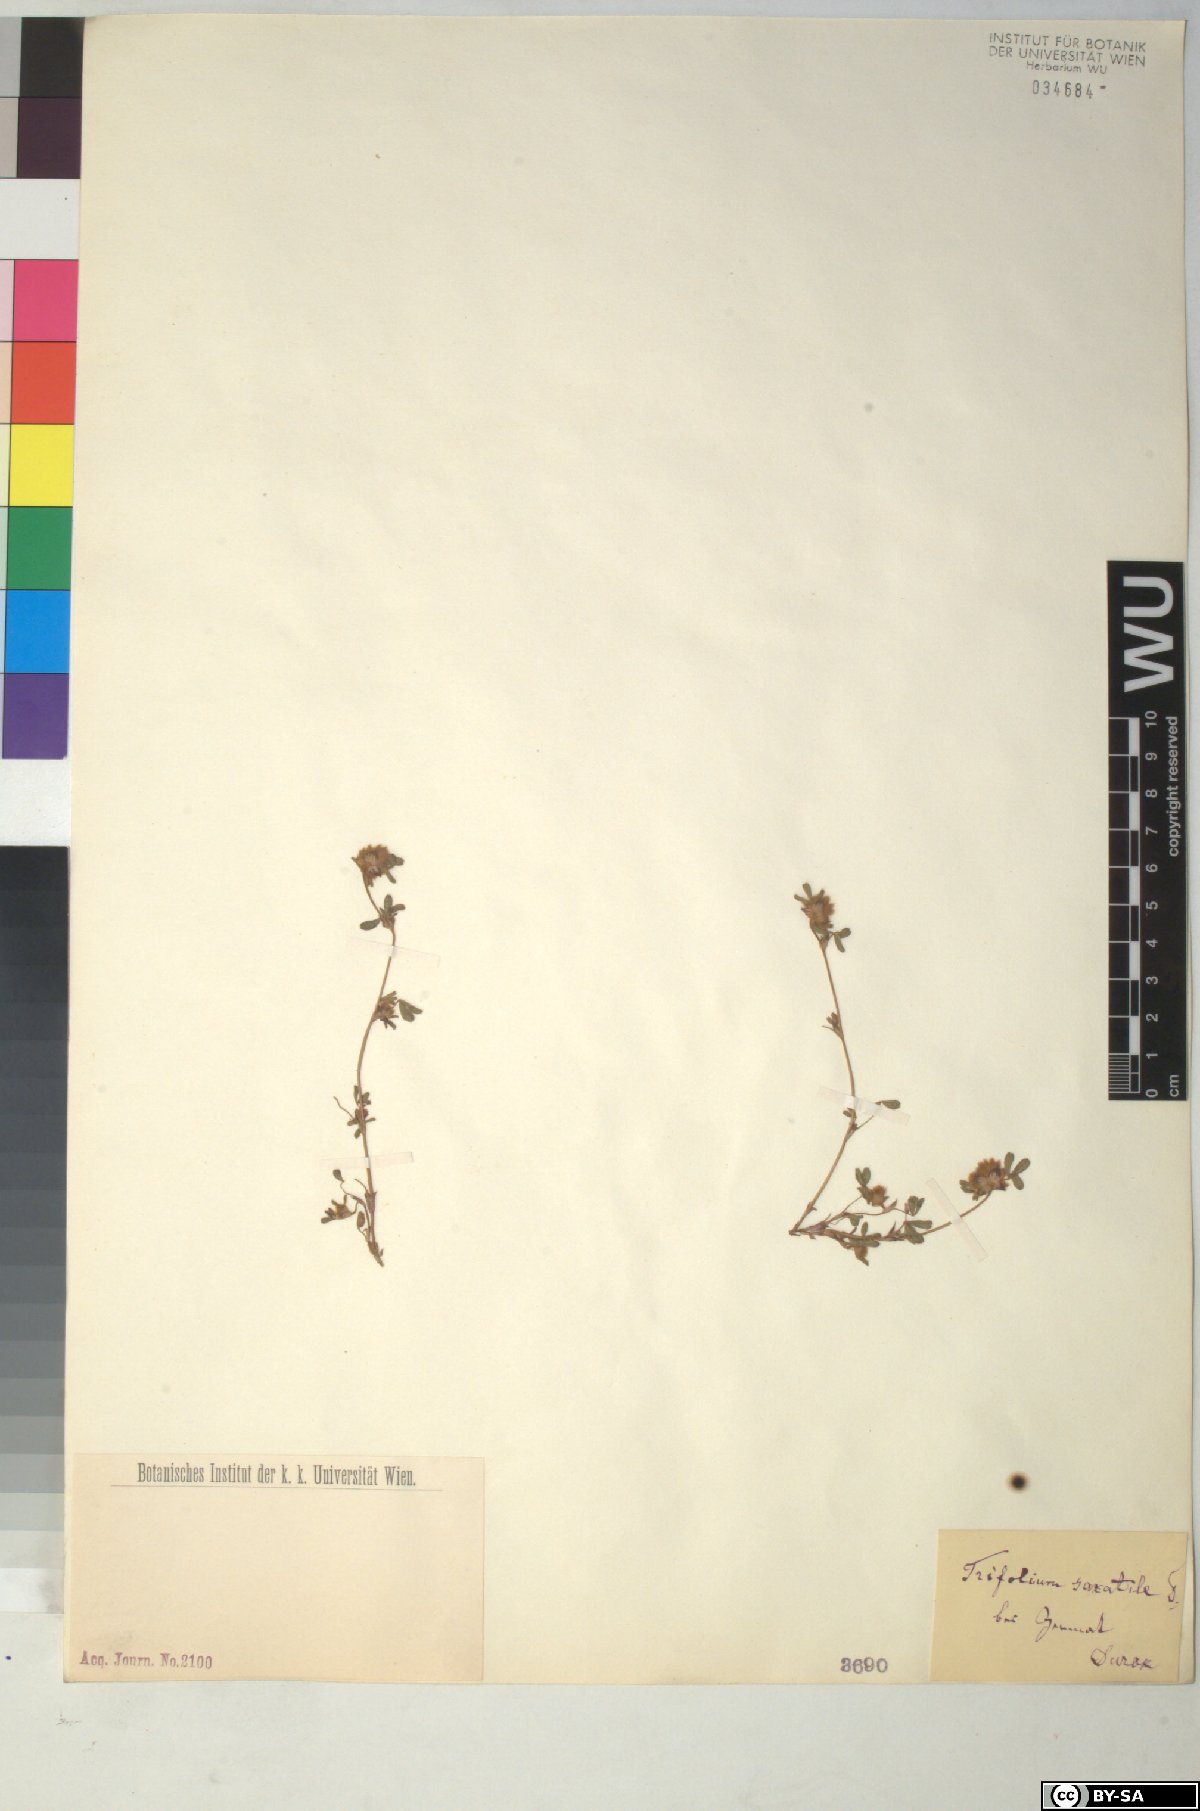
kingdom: Plantae
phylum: Tracheophyta
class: Magnoliopsida
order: Fabales
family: Fabaceae
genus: Trifolium
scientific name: Trifolium saxatile
